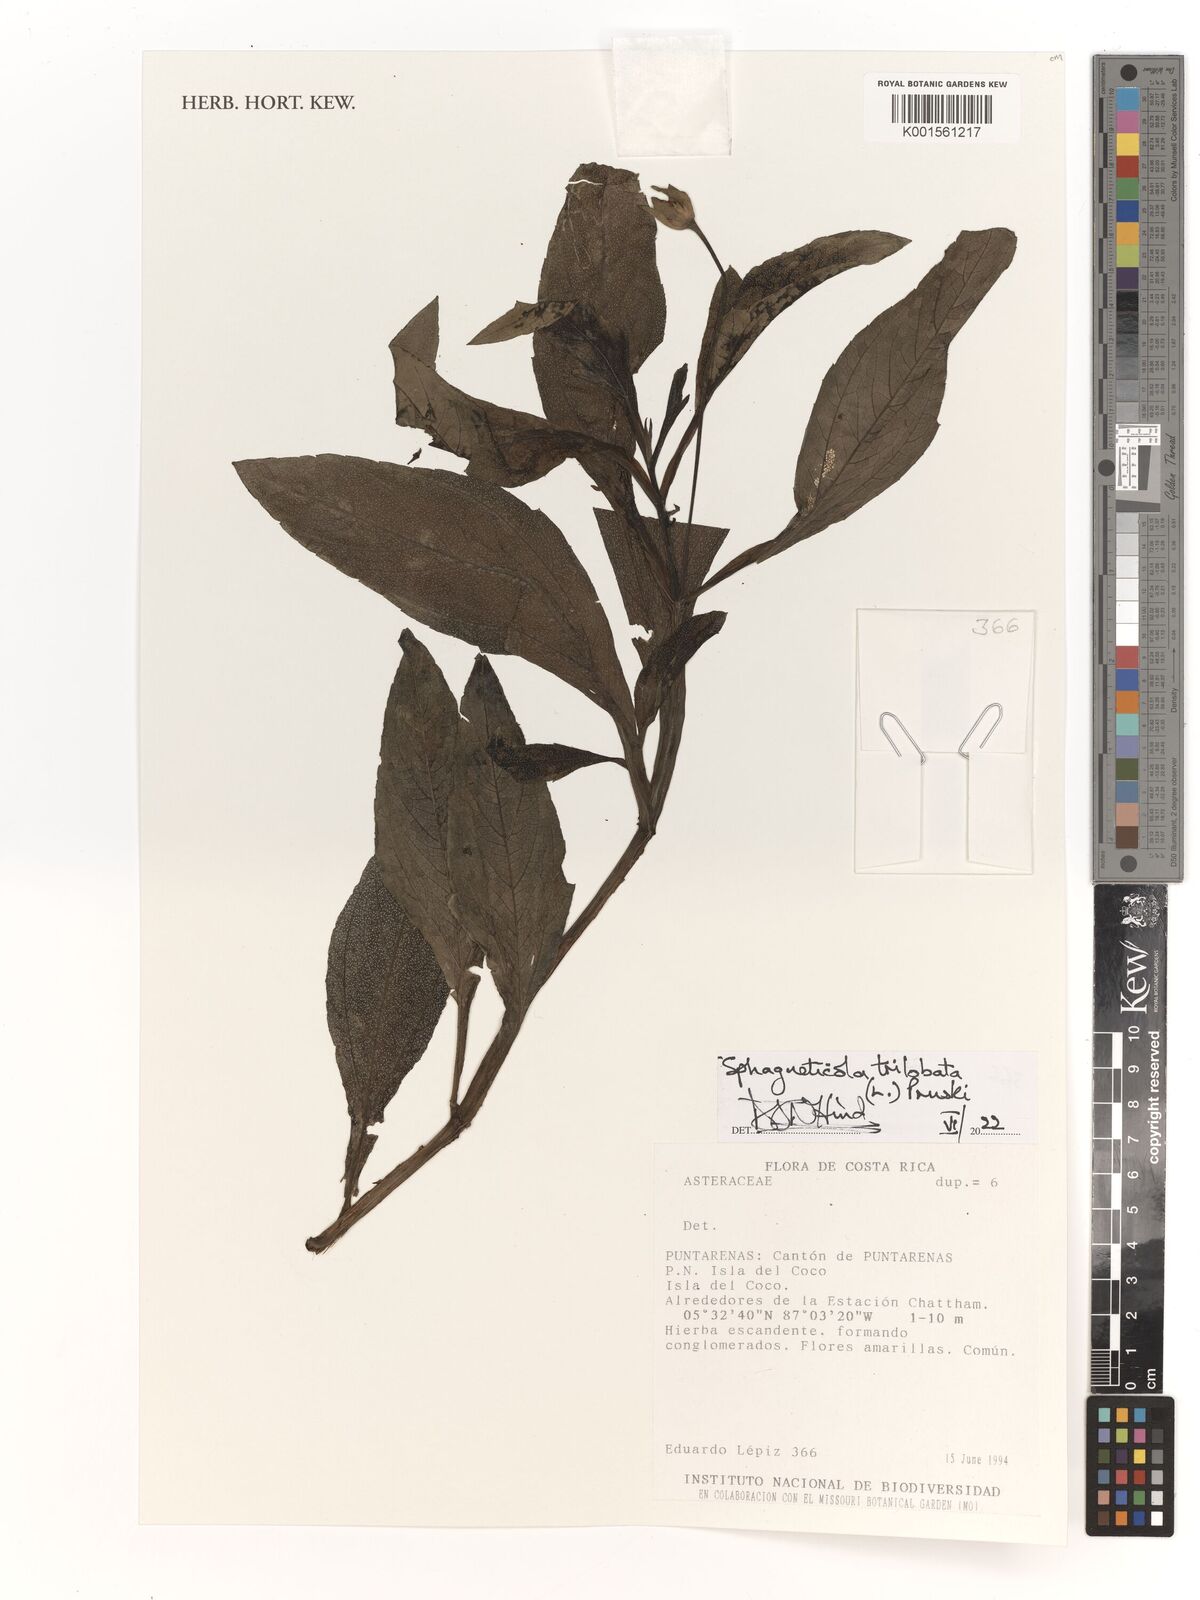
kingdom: Plantae
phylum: Tracheophyta
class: Magnoliopsida
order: Asterales
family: Asteraceae
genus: Sphagneticola
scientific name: Sphagneticola trilobata
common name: Bay biscayne creeping-oxeye
